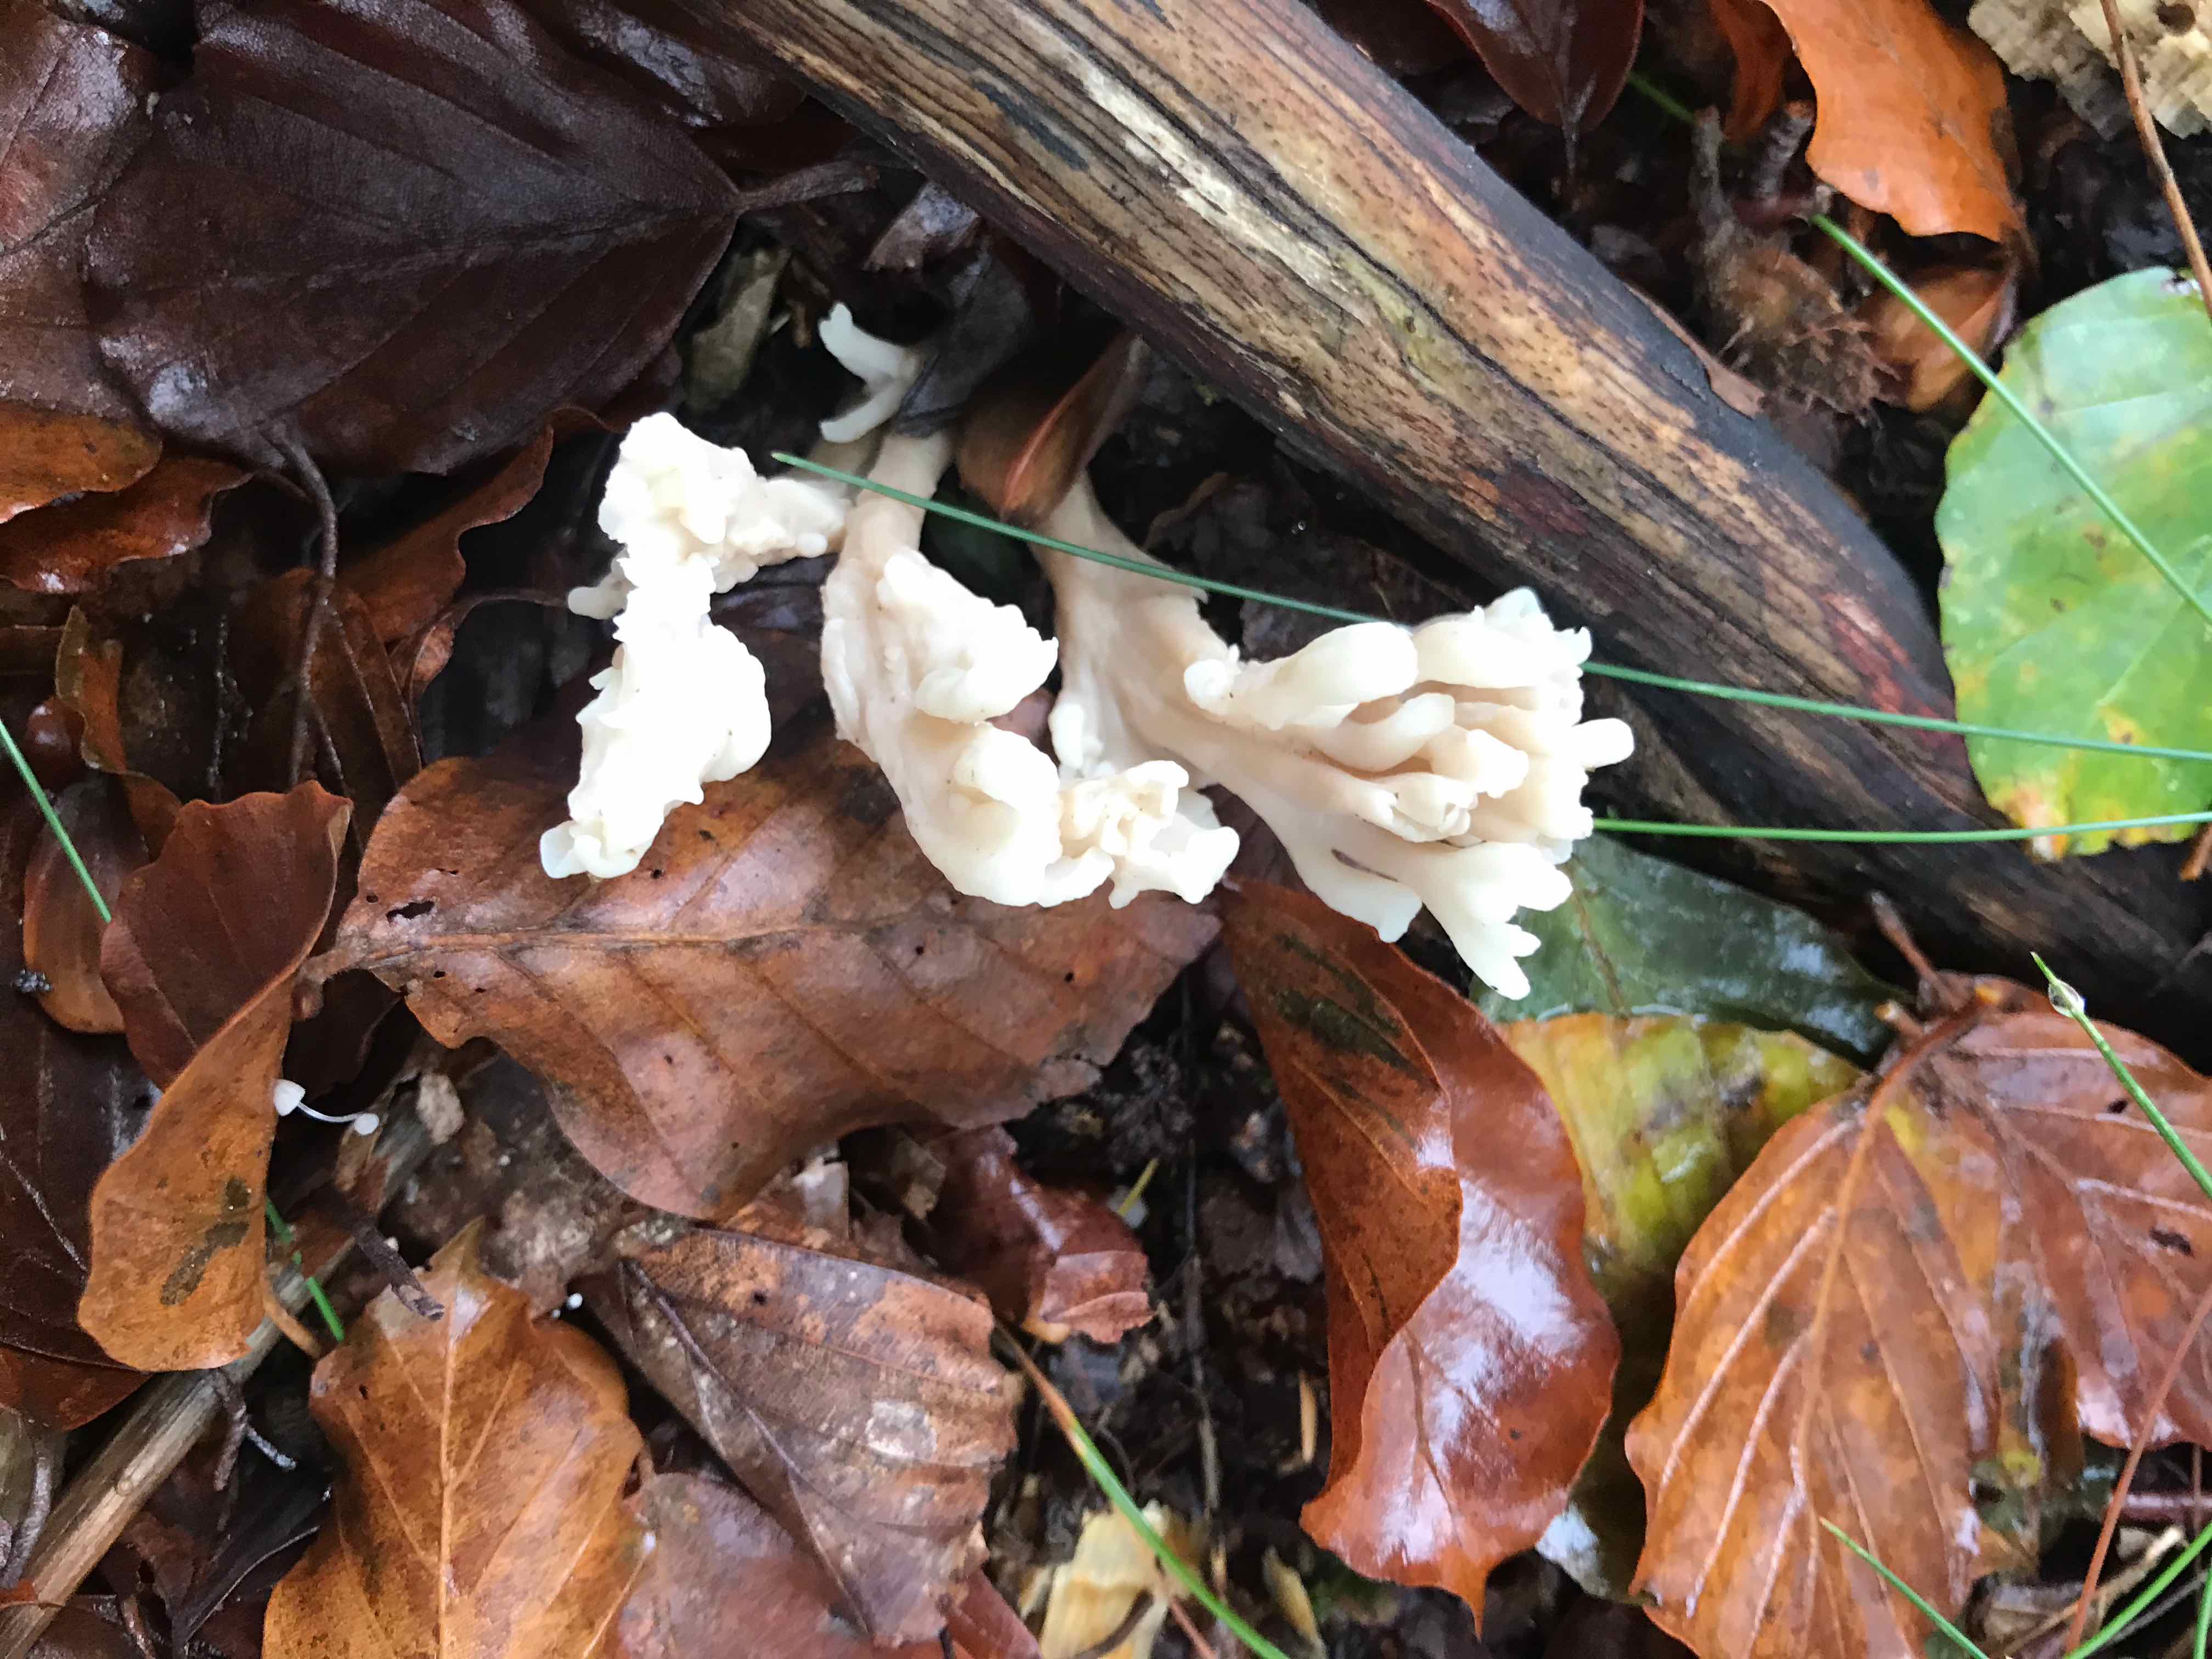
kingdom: Fungi
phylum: Basidiomycota
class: Agaricomycetes
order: Cantharellales
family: Hydnaceae
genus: Clavulina
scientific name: Clavulina
